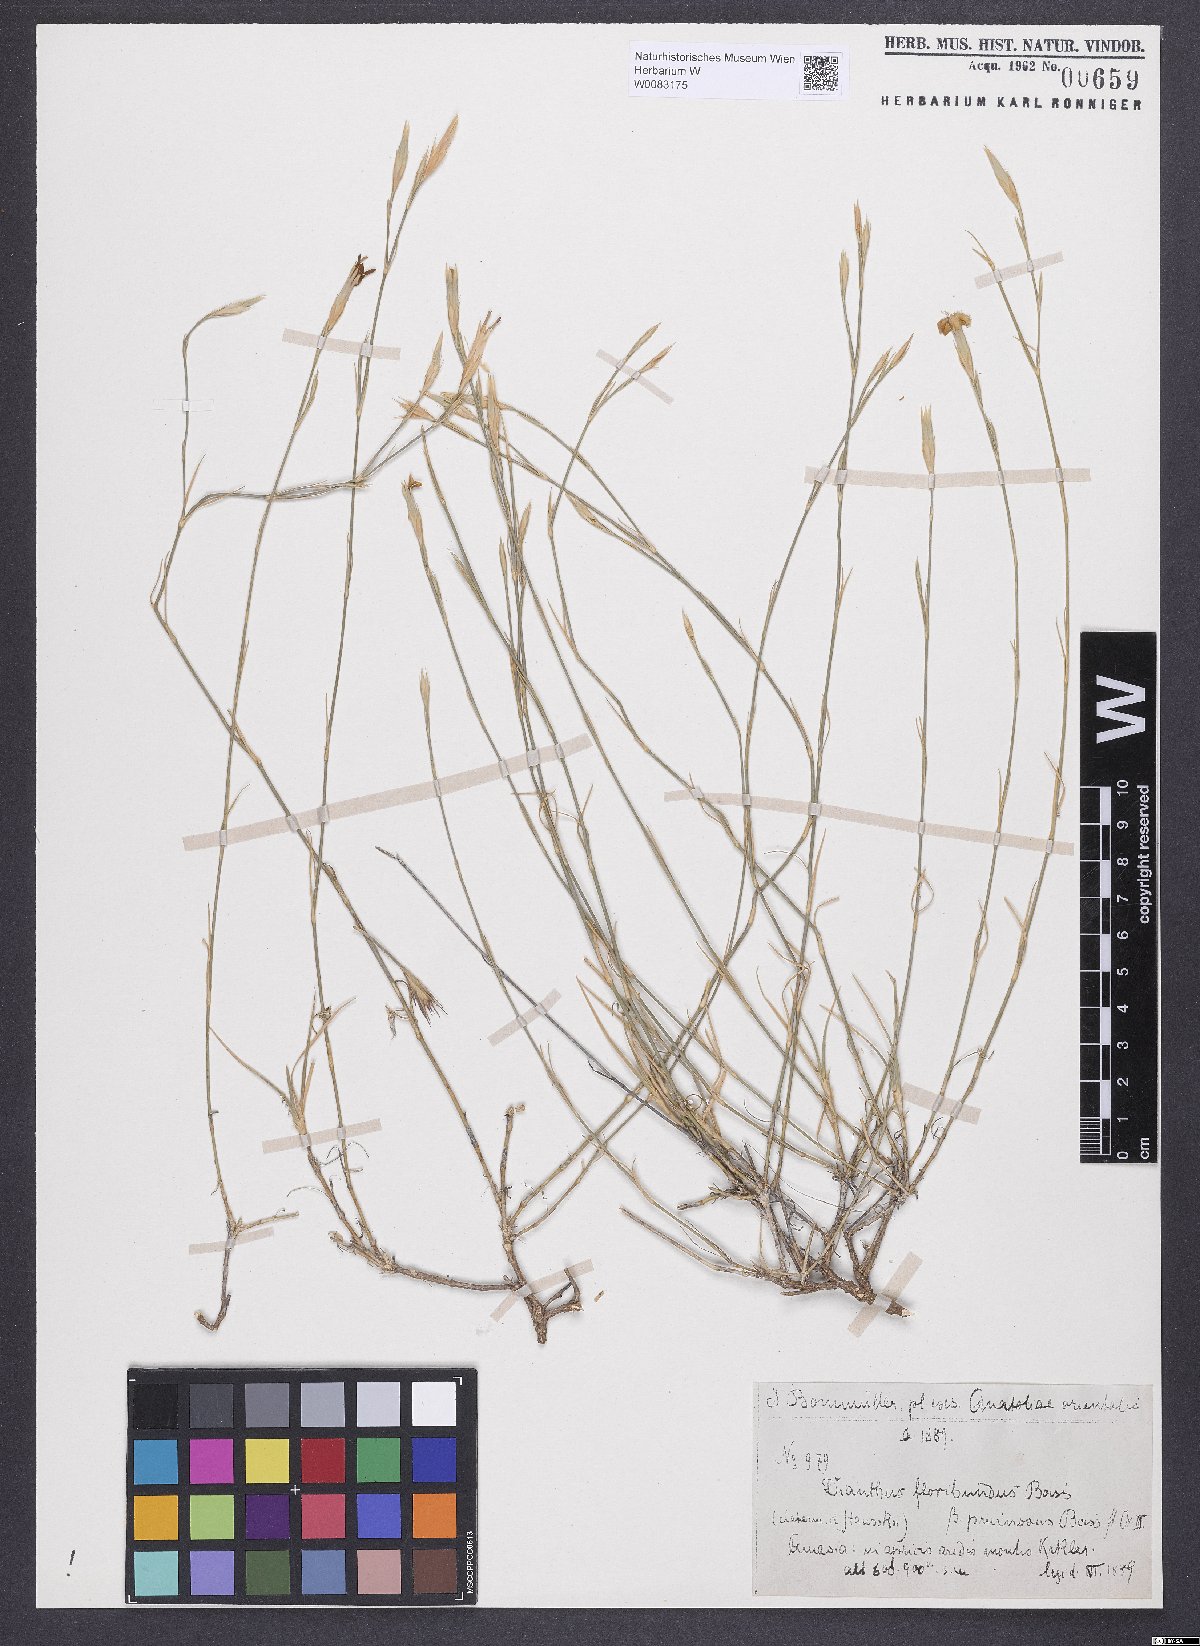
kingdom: Plantae
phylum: Tracheophyta
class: Magnoliopsida
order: Caryophyllales
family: Caryophyllaceae
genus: Dianthus
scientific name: Dianthus floribundus
